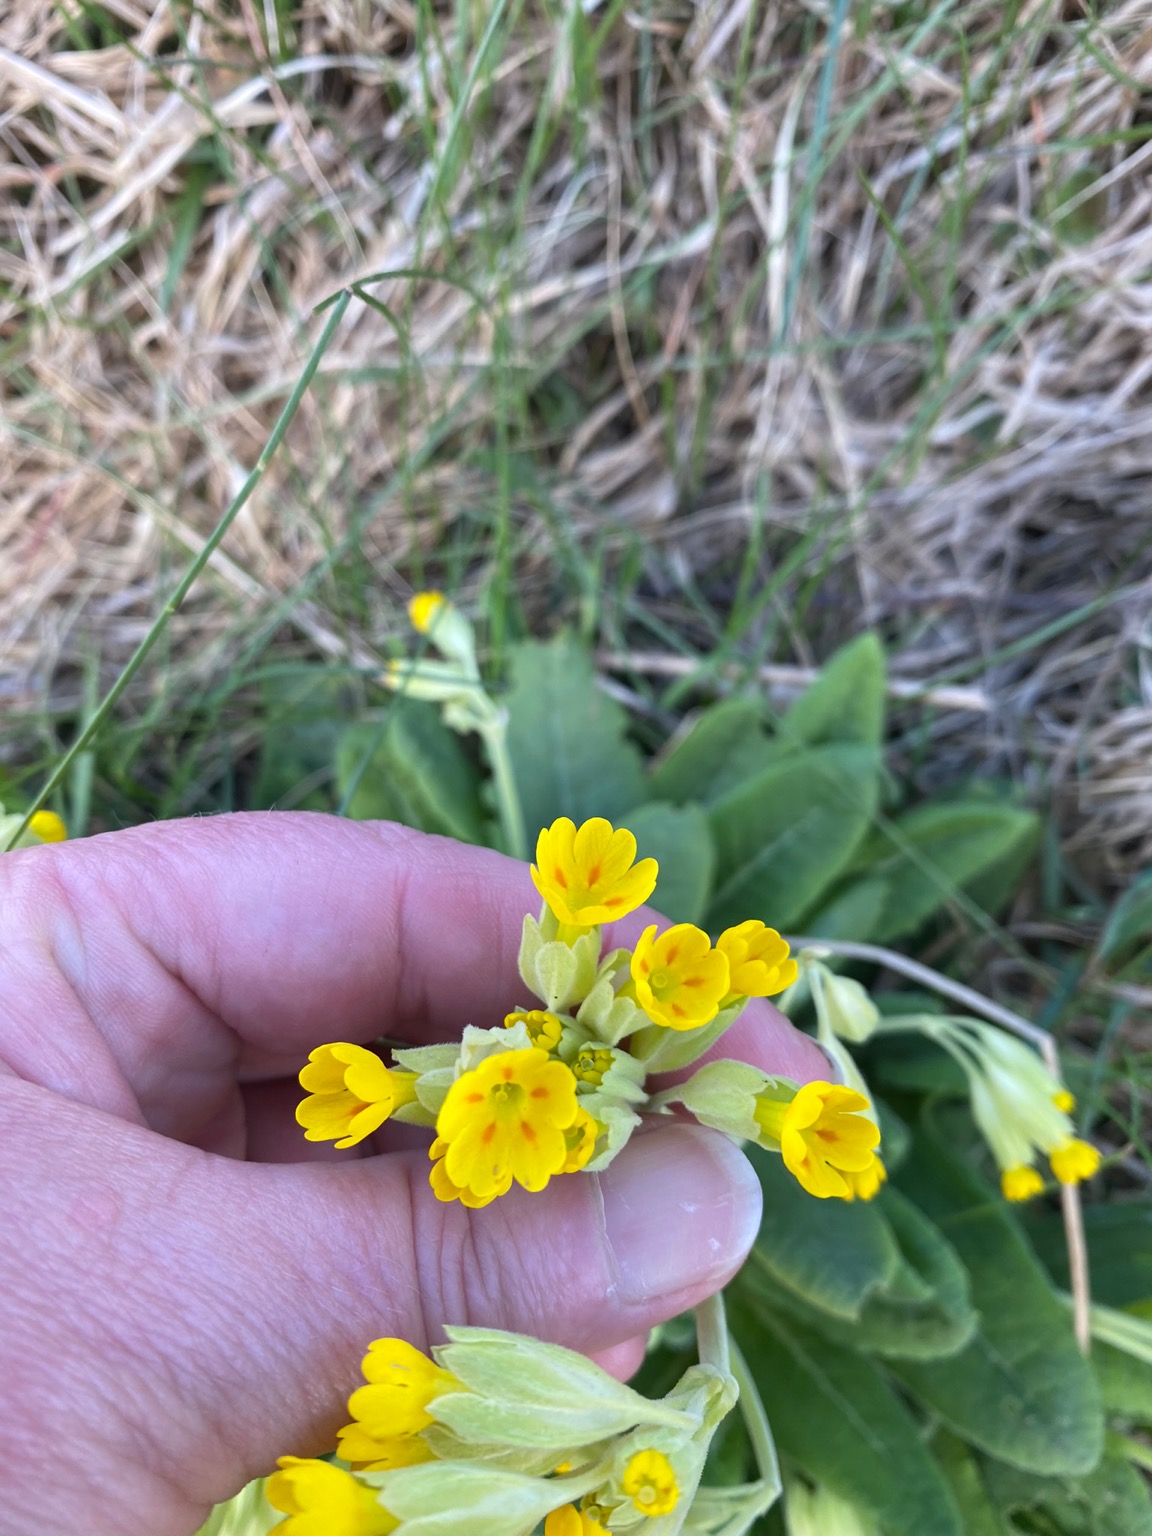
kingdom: Plantae
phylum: Tracheophyta
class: Magnoliopsida
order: Ericales
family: Primulaceae
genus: Primula
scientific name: Primula veris
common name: Hulkravet kodriver
